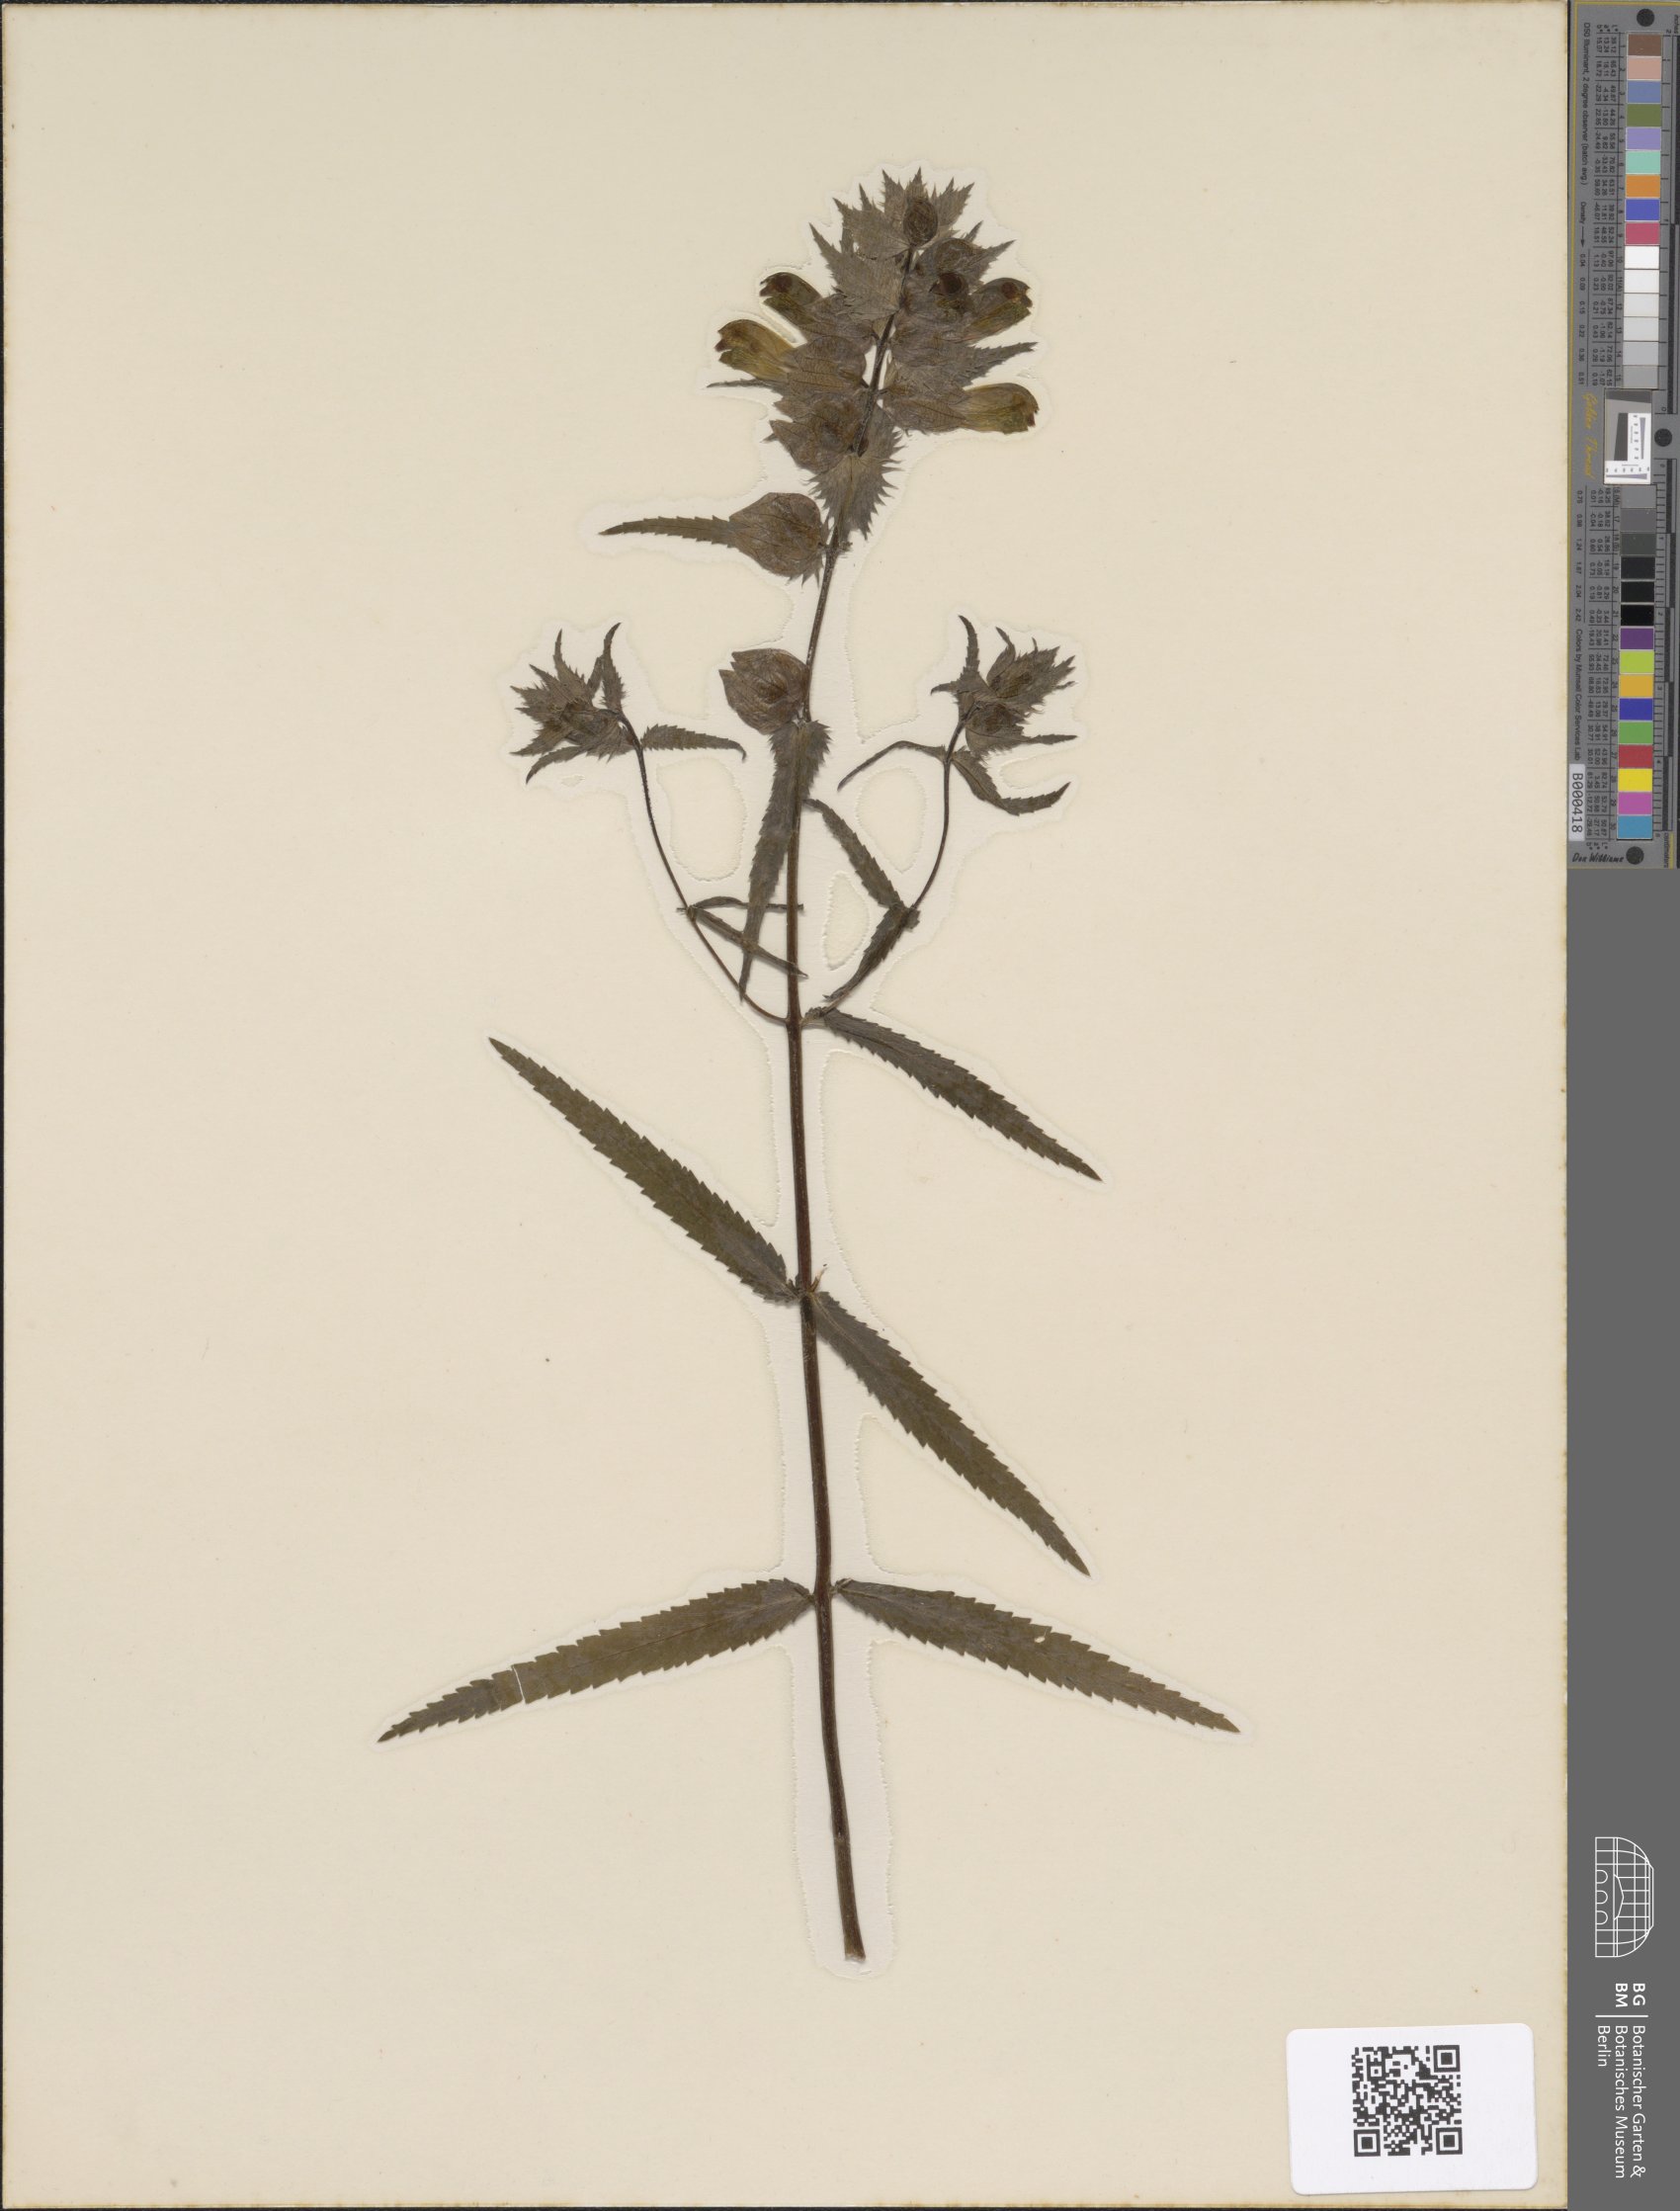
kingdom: Plantae
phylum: Tracheophyta
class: Magnoliopsida
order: Lamiales
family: Orobanchaceae
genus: Rhinanthus
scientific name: Rhinanthus serotinus
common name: Late-flowering yellow rattle
